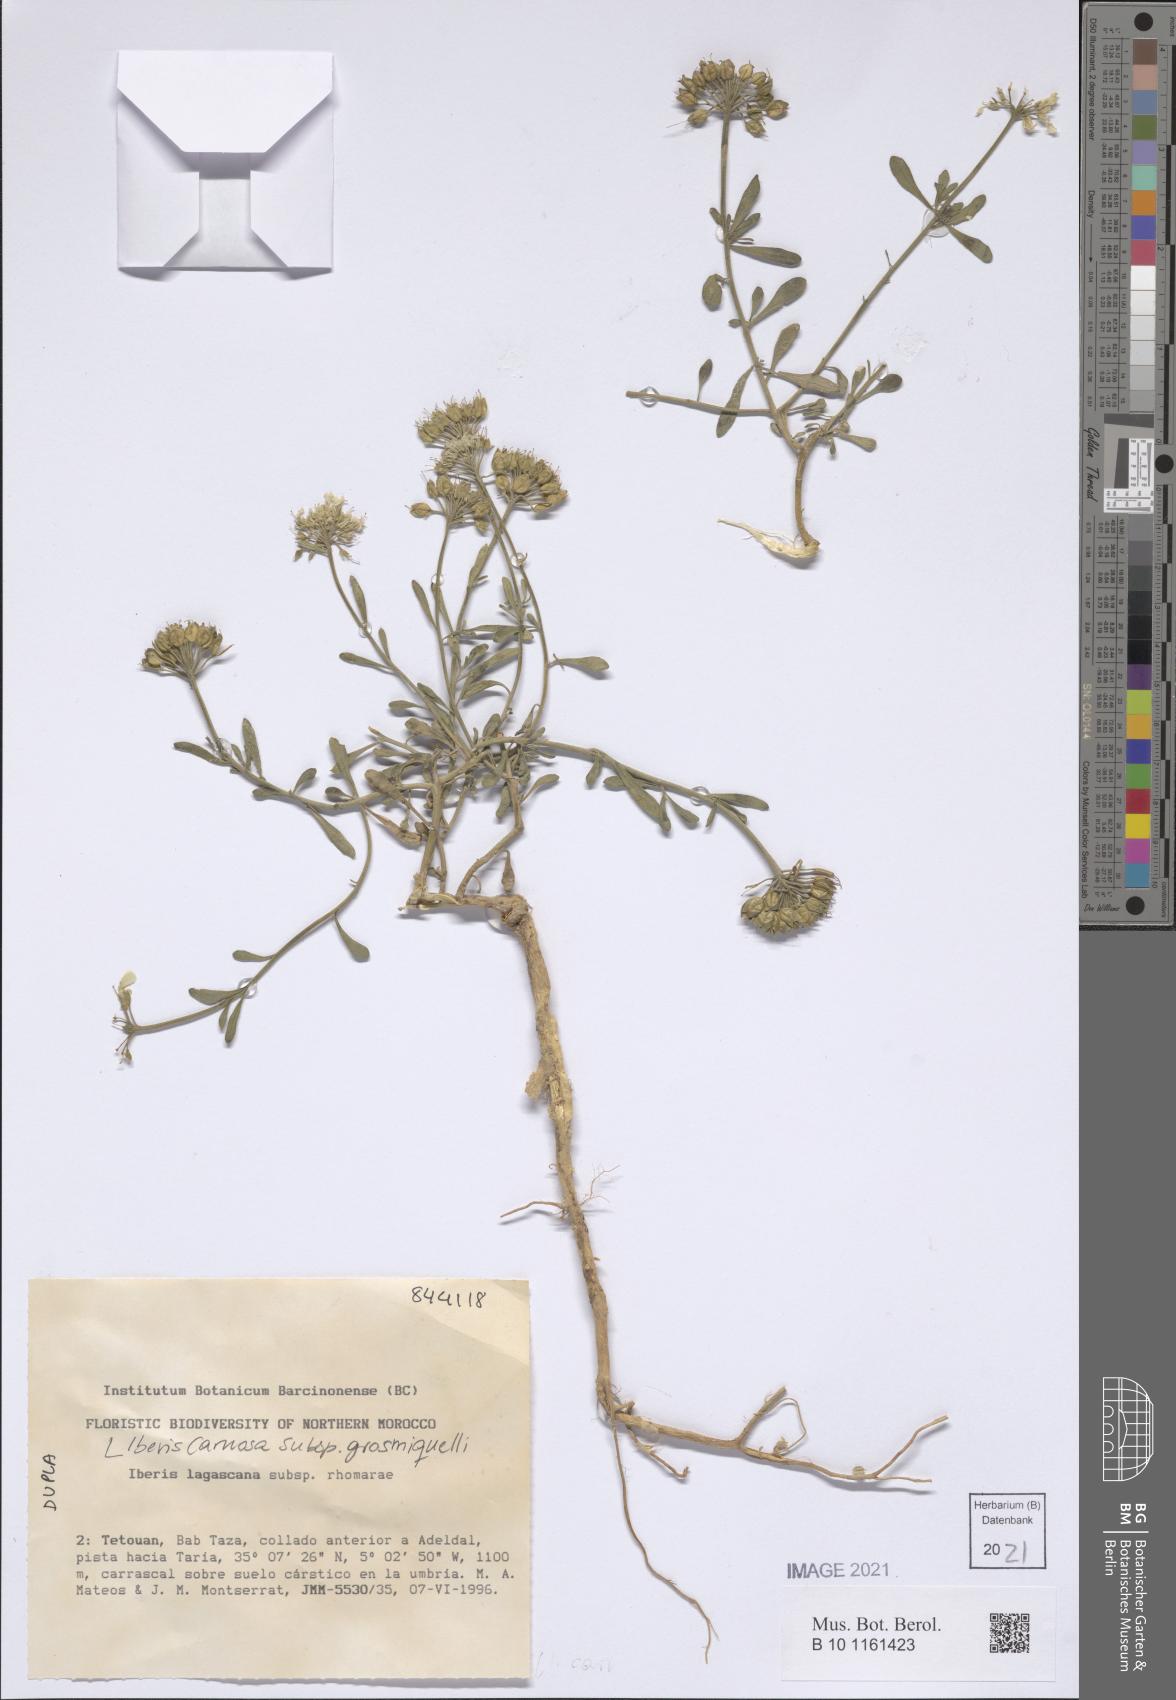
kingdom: Plantae
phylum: Tracheophyta
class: Magnoliopsida
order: Brassicales
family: Brassicaceae
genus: Iberis
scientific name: Iberis carnosa
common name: Pruit's candytuft
